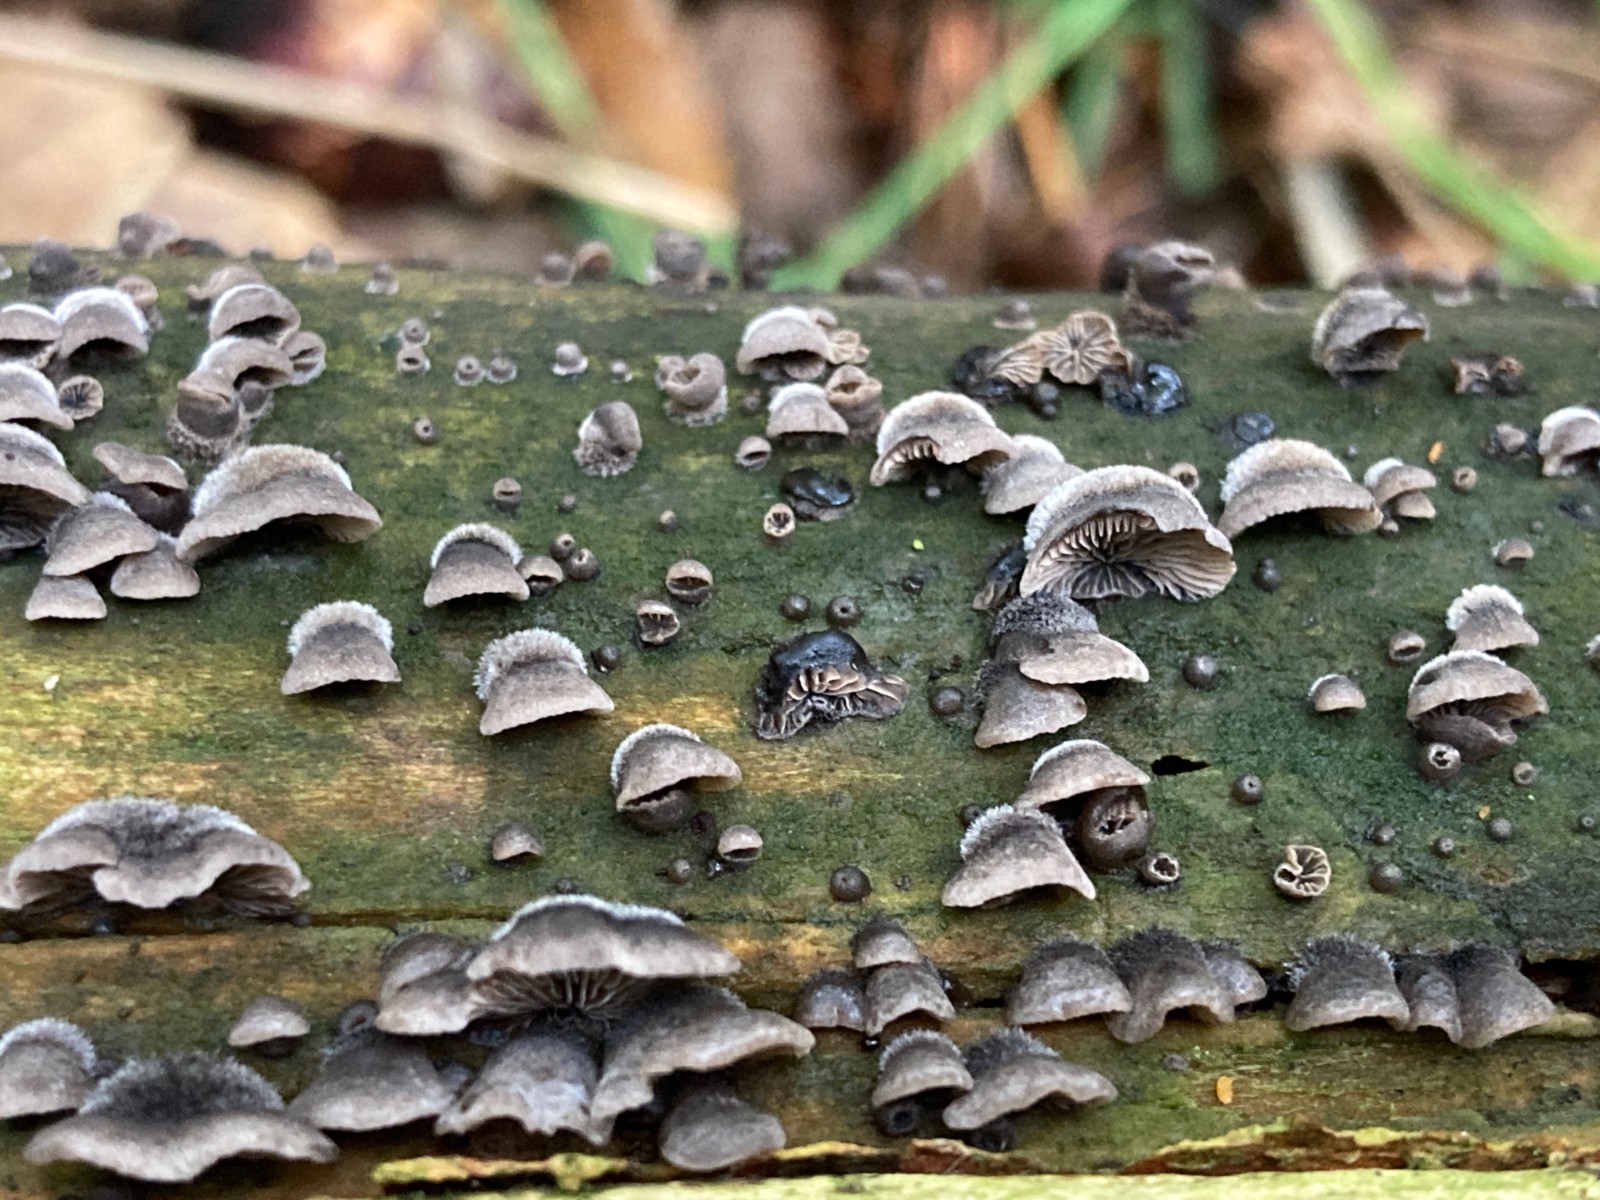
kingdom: Fungi
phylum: Basidiomycota
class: Agaricomycetes
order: Agaricales
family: Pleurotaceae
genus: Resupinatus
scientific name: Resupinatus trichotis
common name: mørkfiltet barkhat
